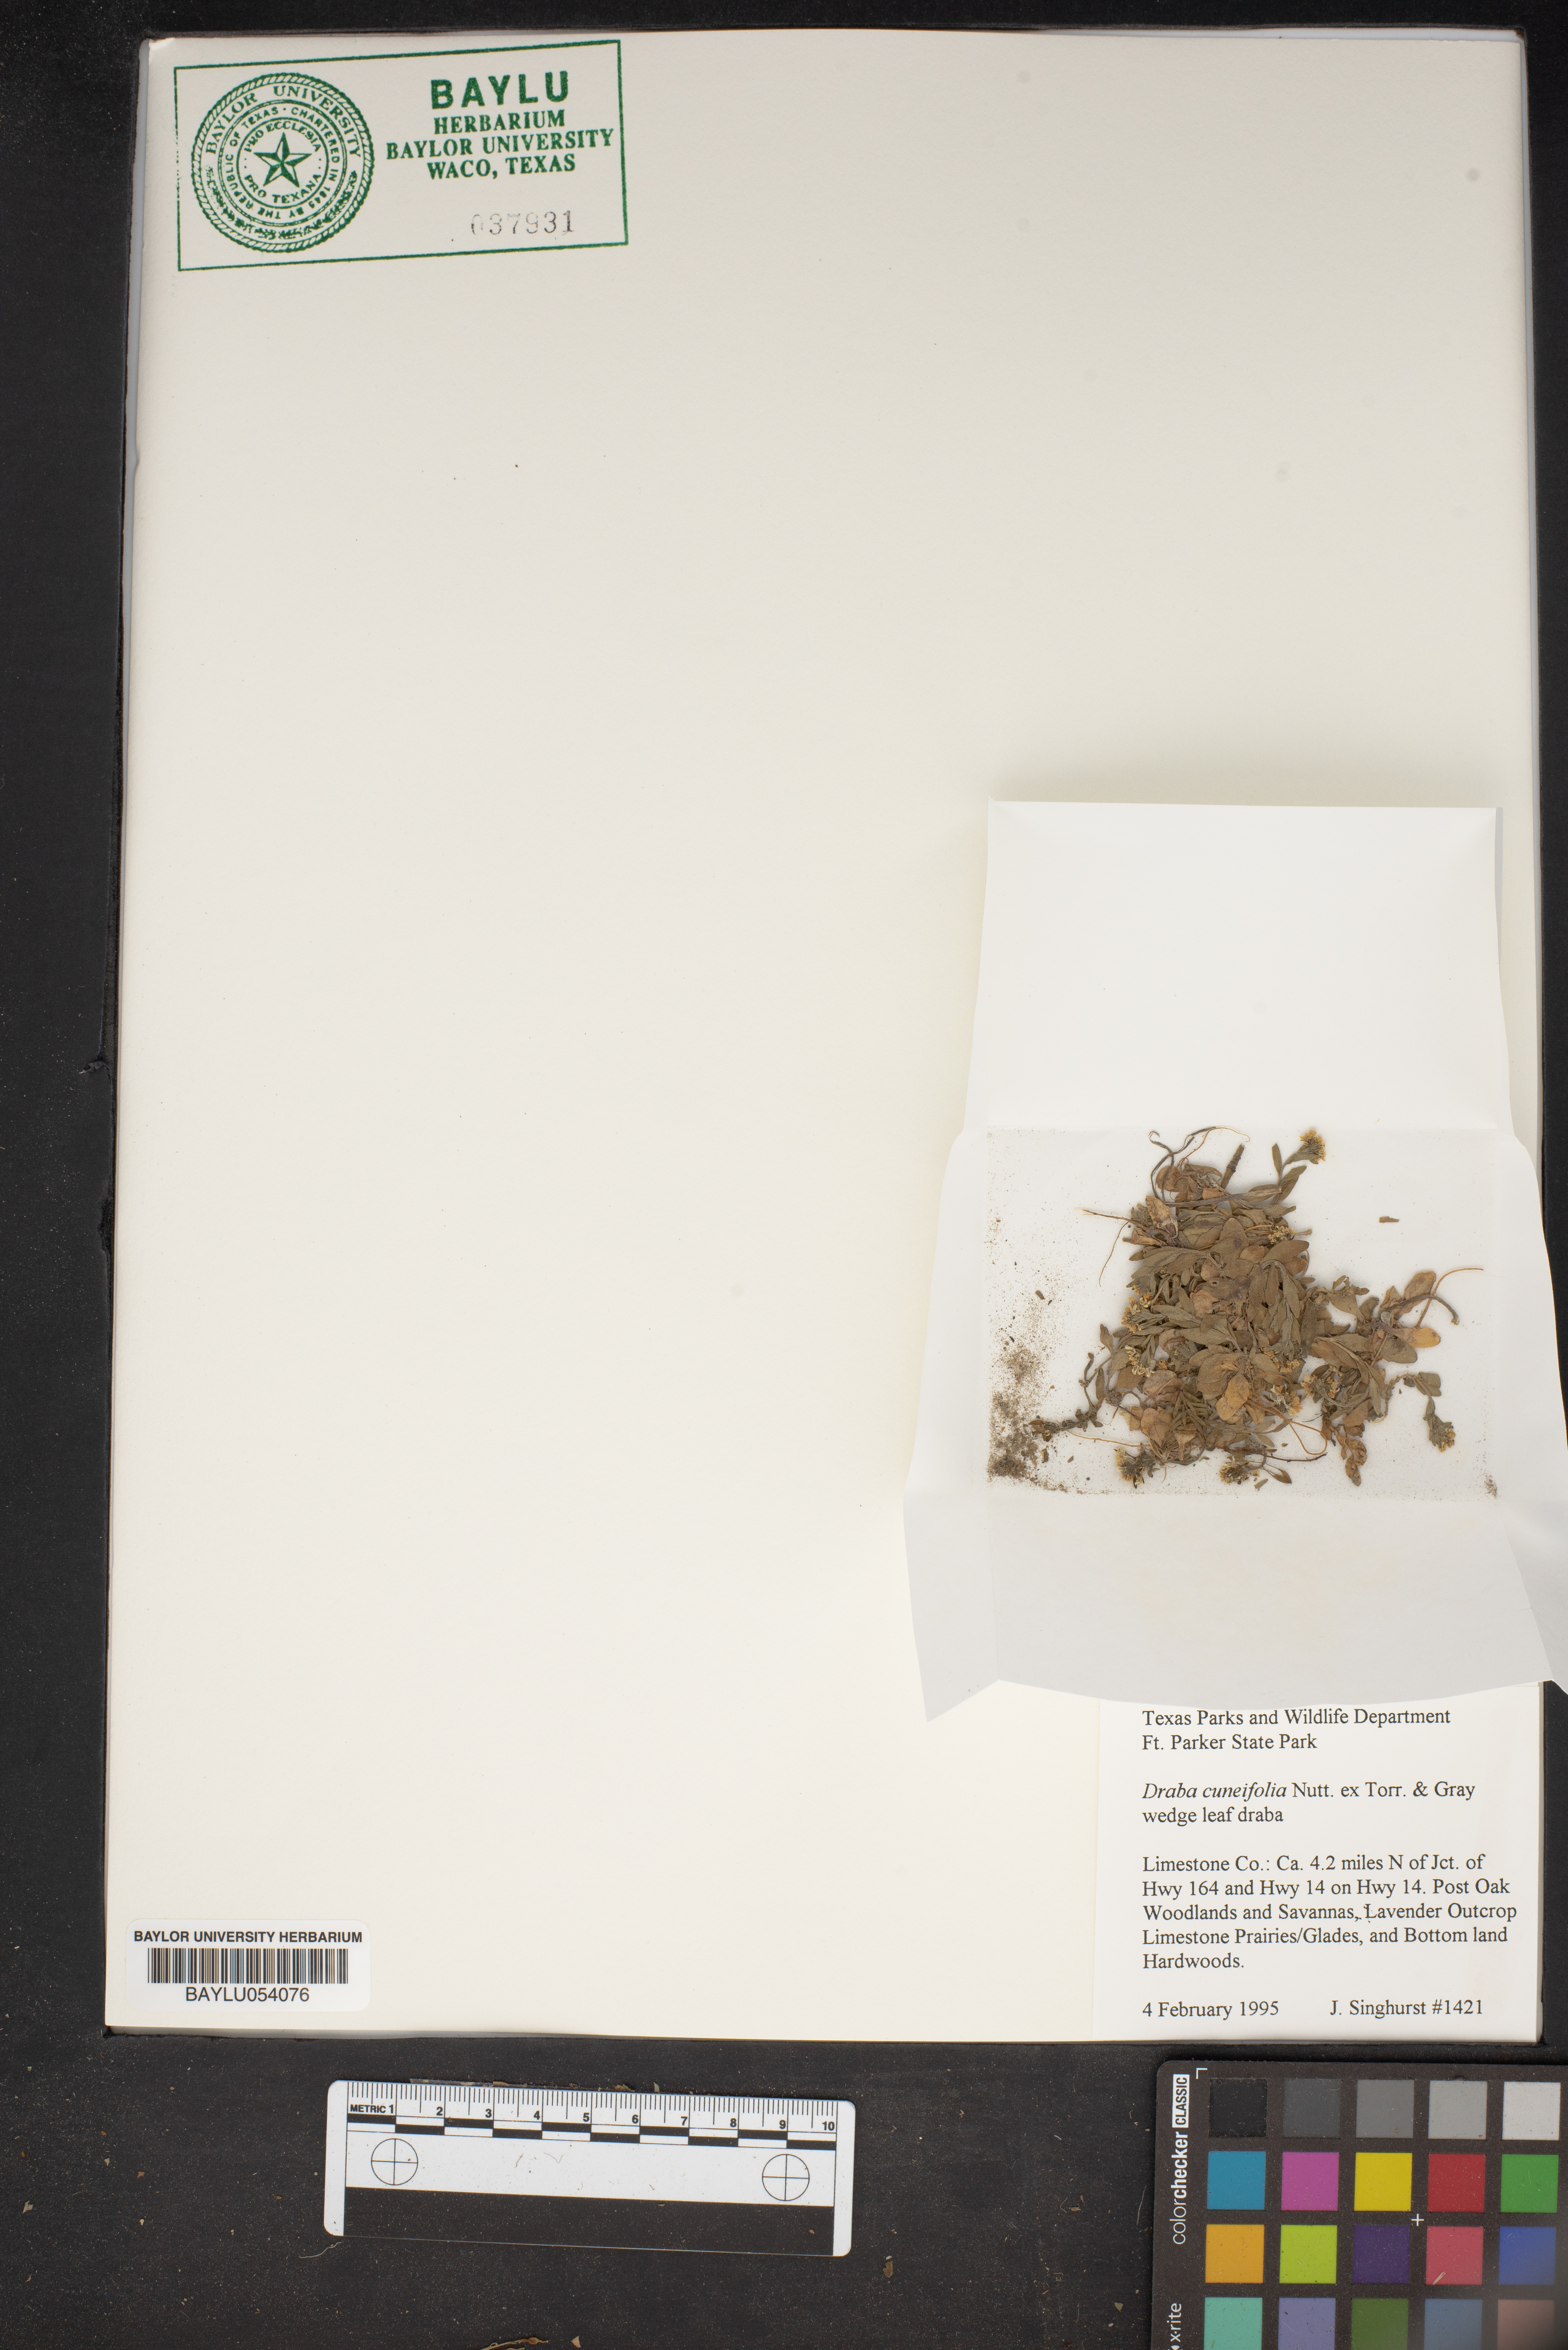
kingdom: Plantae
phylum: Tracheophyta
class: Magnoliopsida
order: Brassicales
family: Brassicaceae
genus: Tomostima
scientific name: Tomostima cuneifolia
